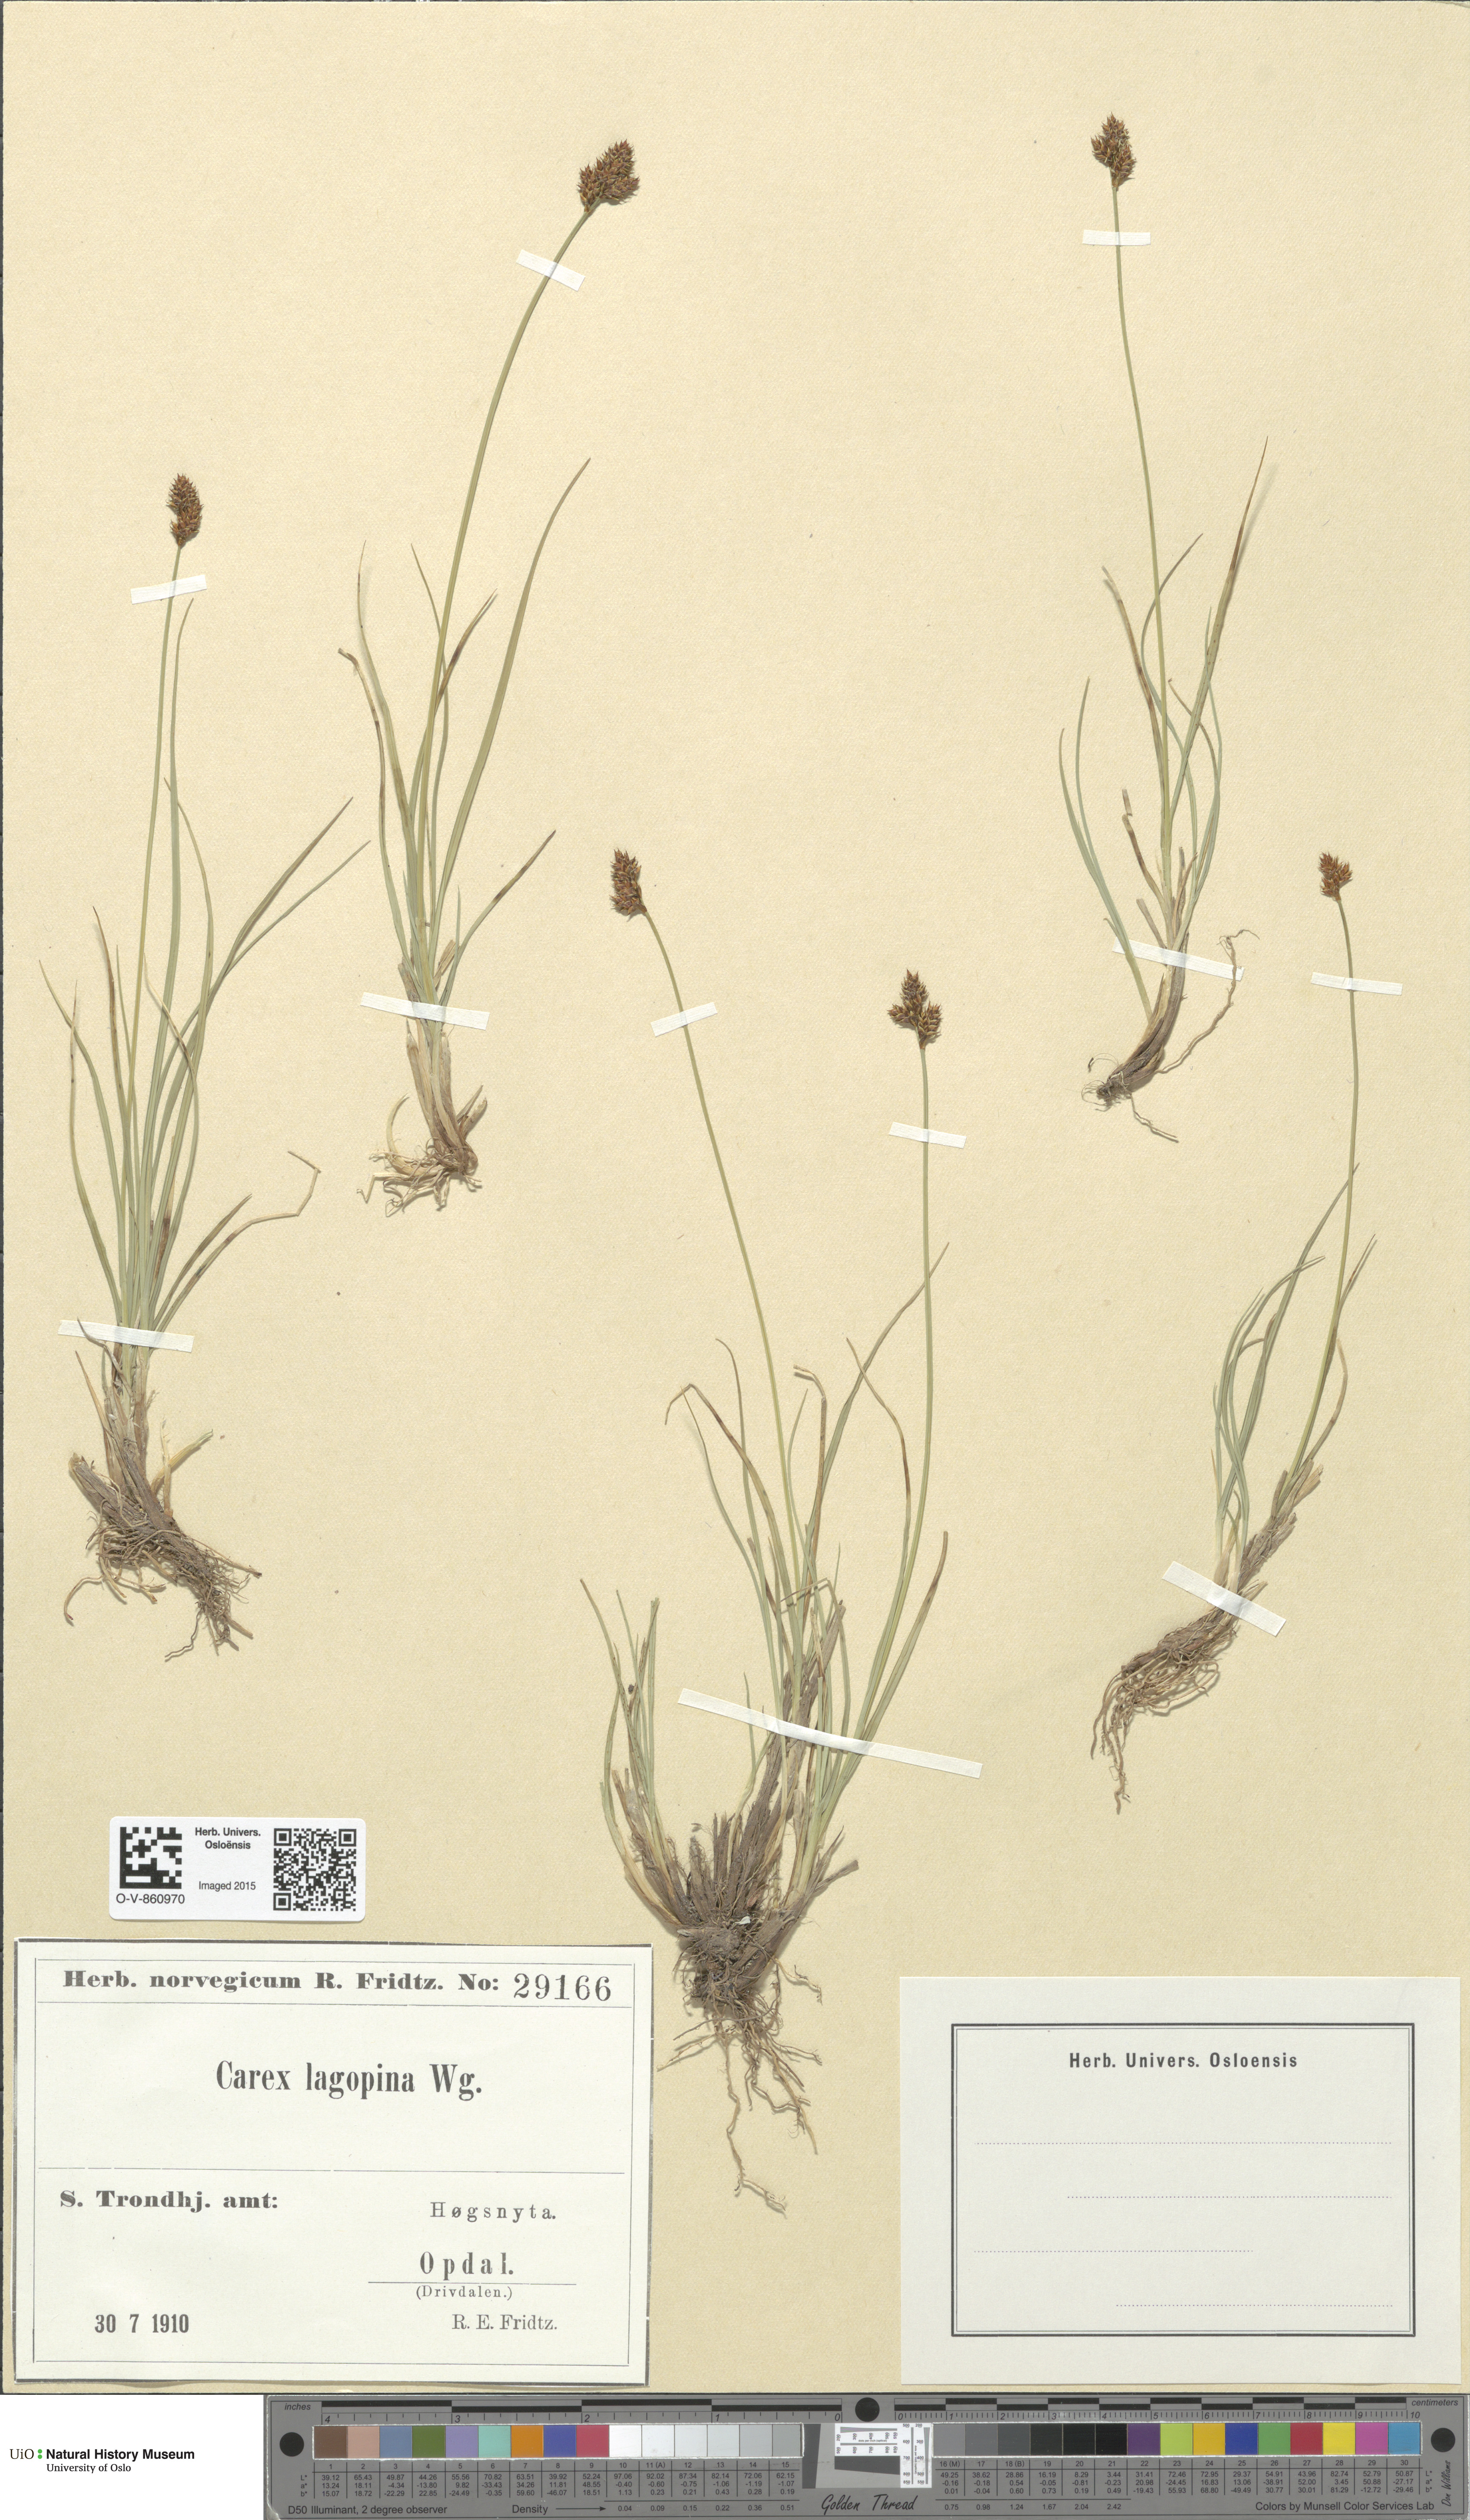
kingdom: Plantae
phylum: Tracheophyta
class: Liliopsida
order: Poales
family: Cyperaceae
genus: Carex
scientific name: Carex lachenalii
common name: Hare's-foot sedge
